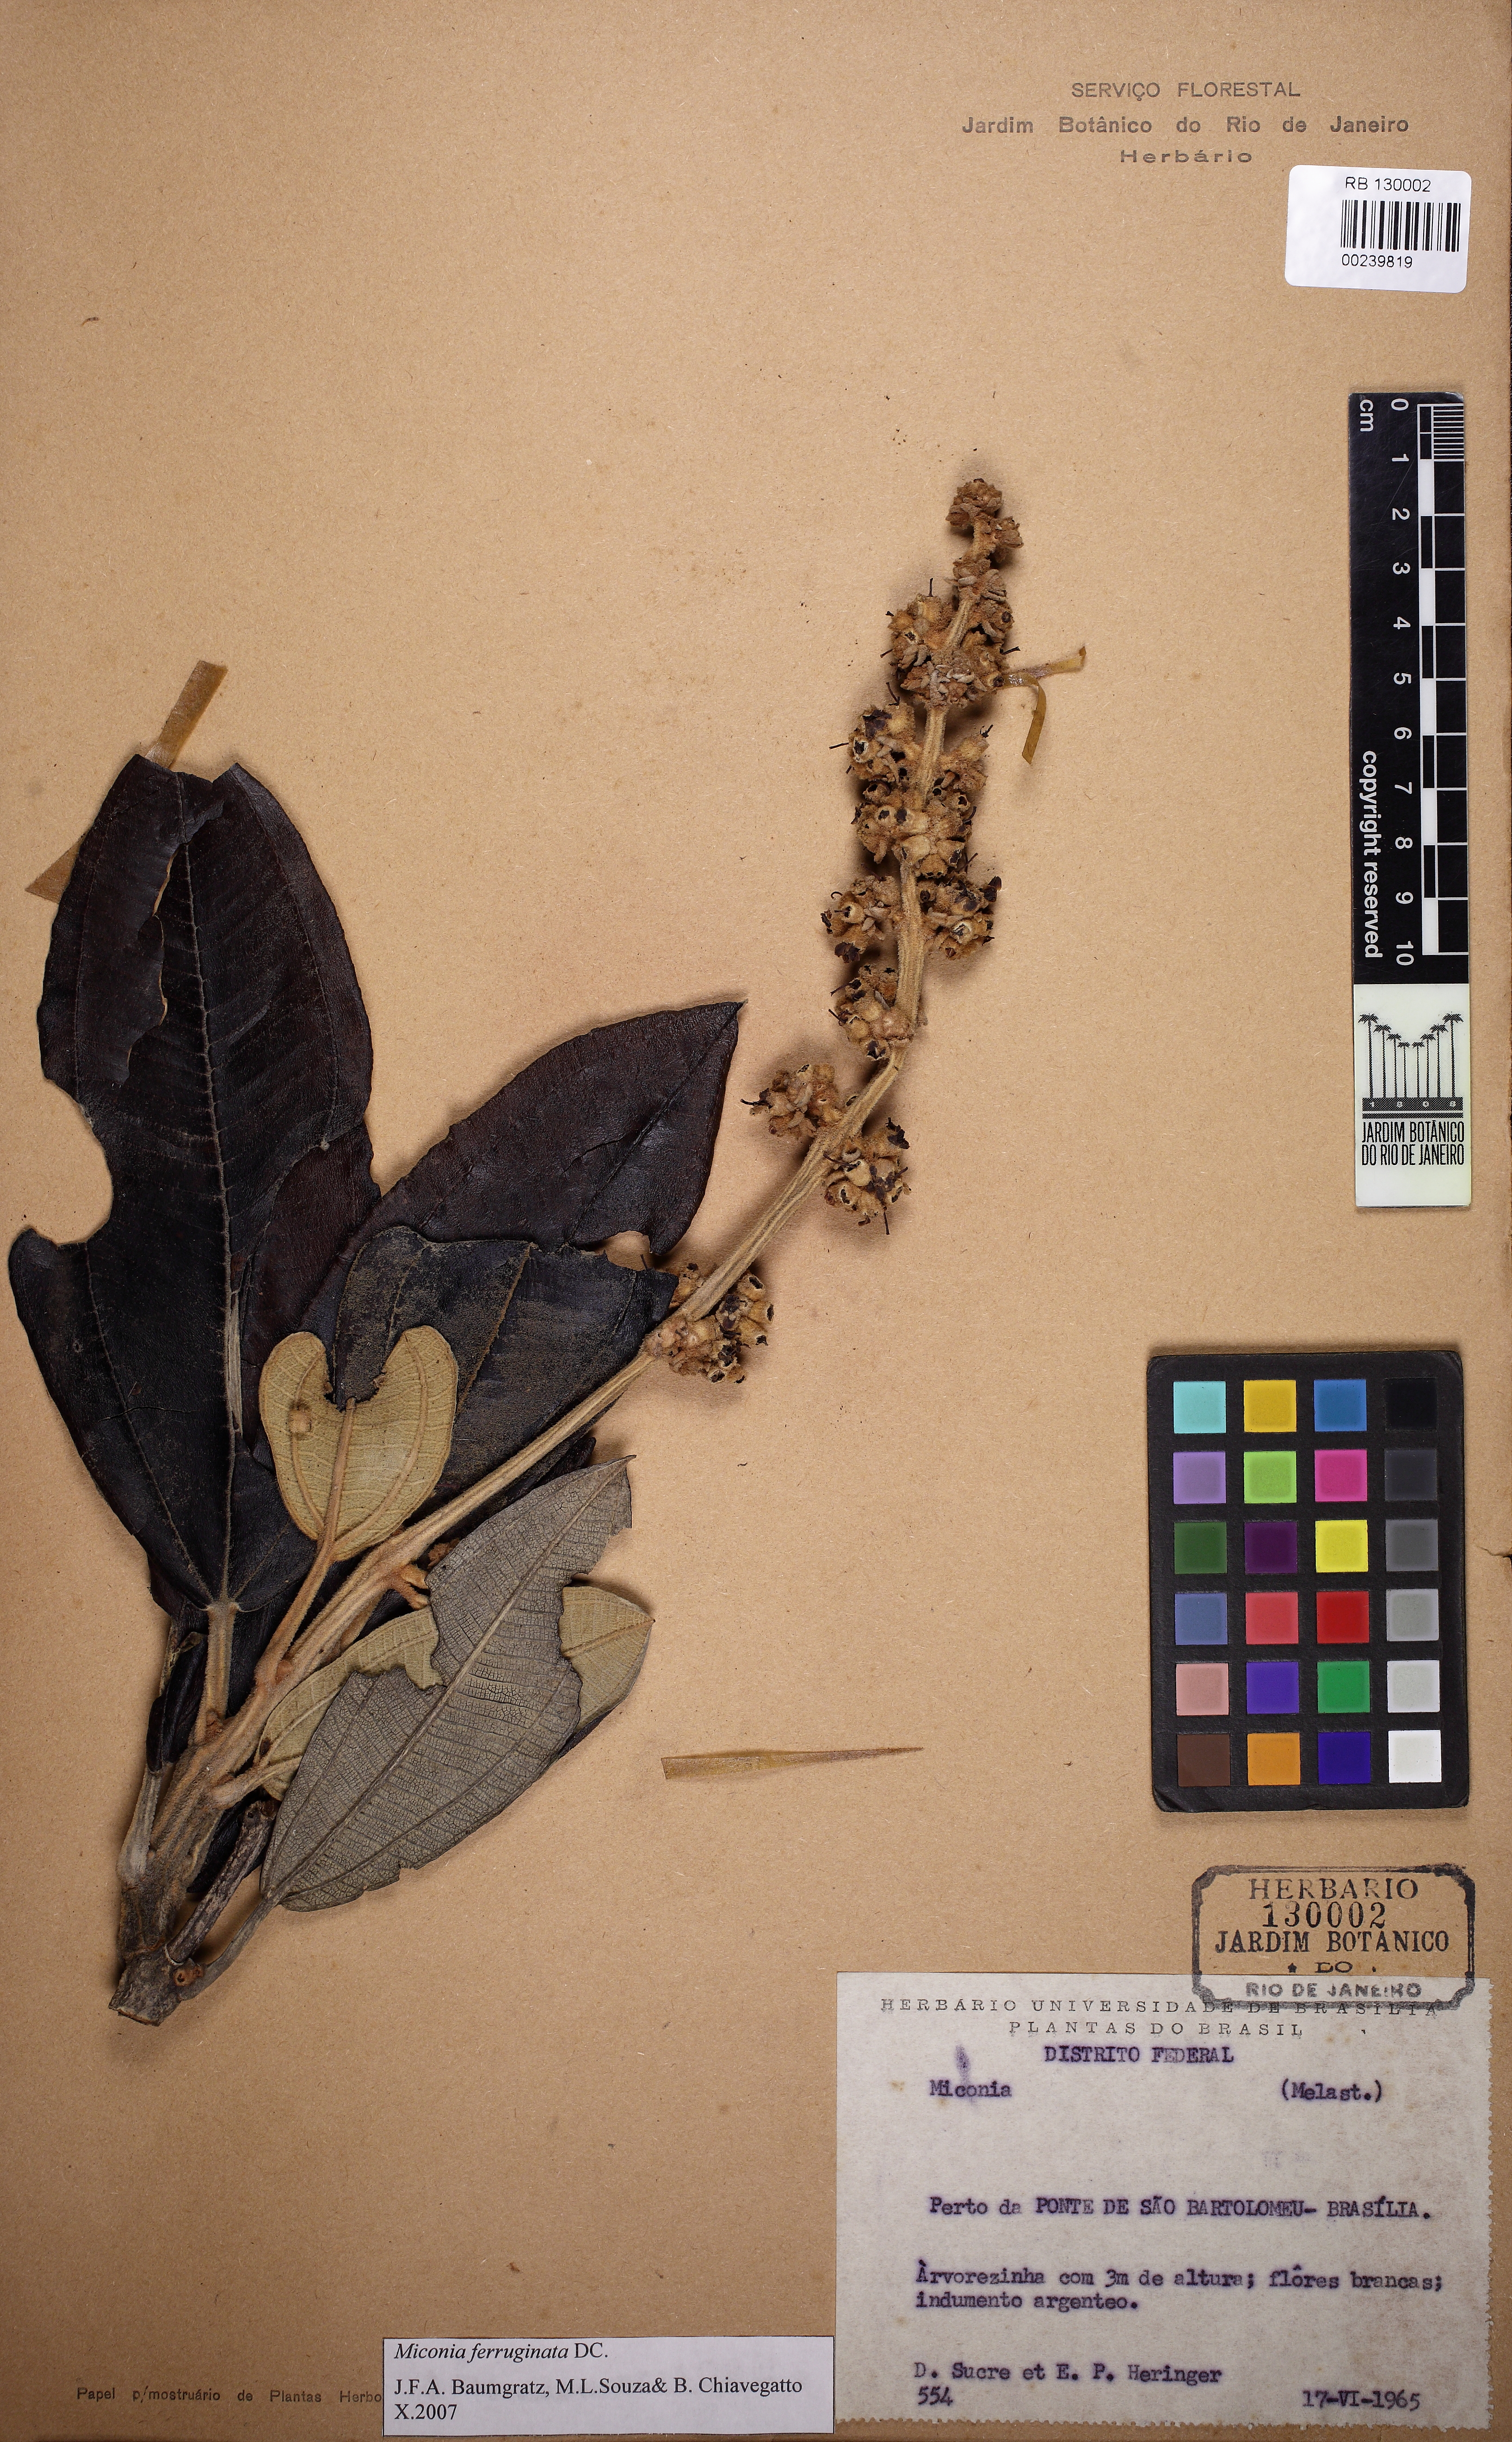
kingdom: Plantae
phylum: Tracheophyta
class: Magnoliopsida
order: Myrtales
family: Melastomataceae
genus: Miconia
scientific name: Miconia ferruginata
